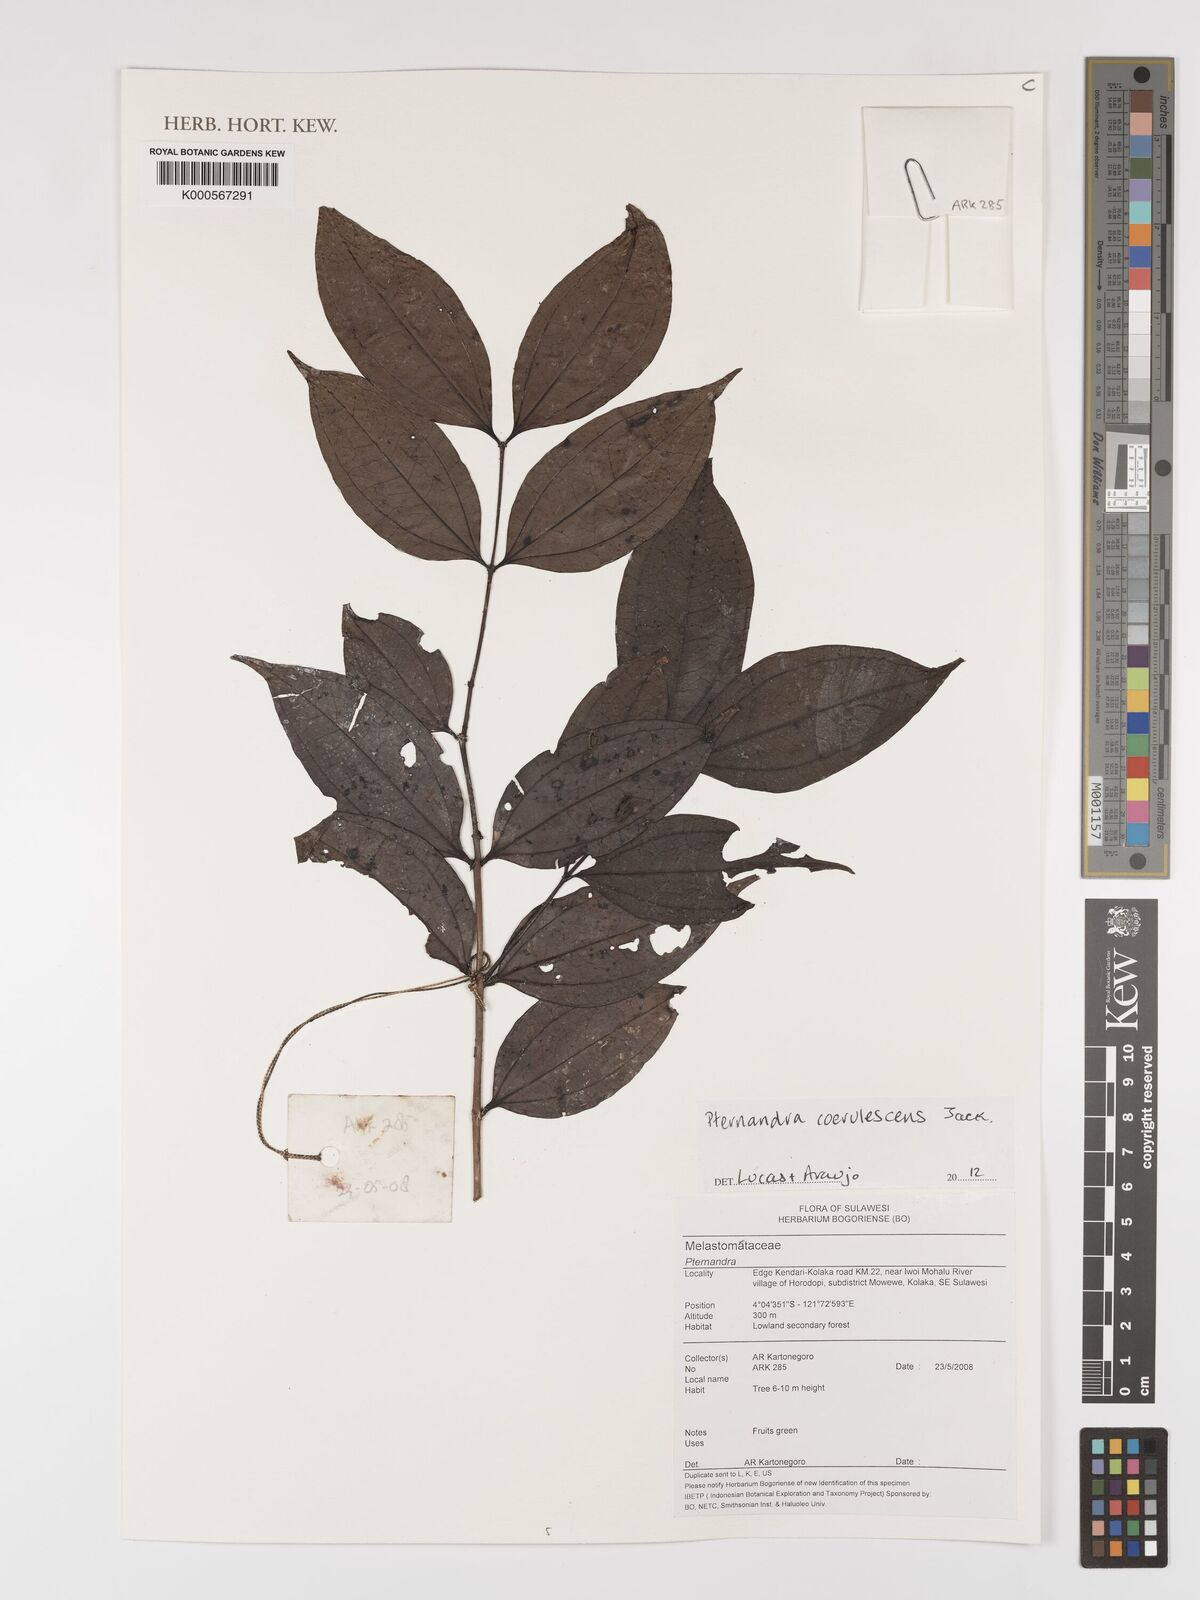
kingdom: Plantae
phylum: Tracheophyta
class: Magnoliopsida
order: Myrtales
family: Melastomataceae
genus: Pternandra
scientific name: Pternandra
